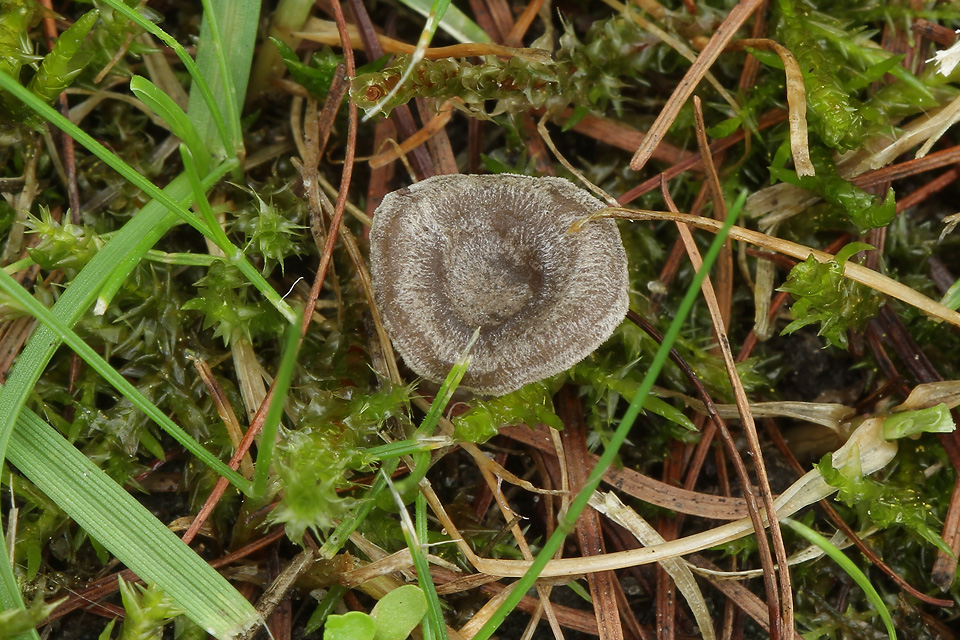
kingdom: Fungi
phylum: Basidiomycota
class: Agaricomycetes
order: Agaricales
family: Entolomataceae
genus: Entoloma
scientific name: Entoloma undatum
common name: bæltet rødblad
